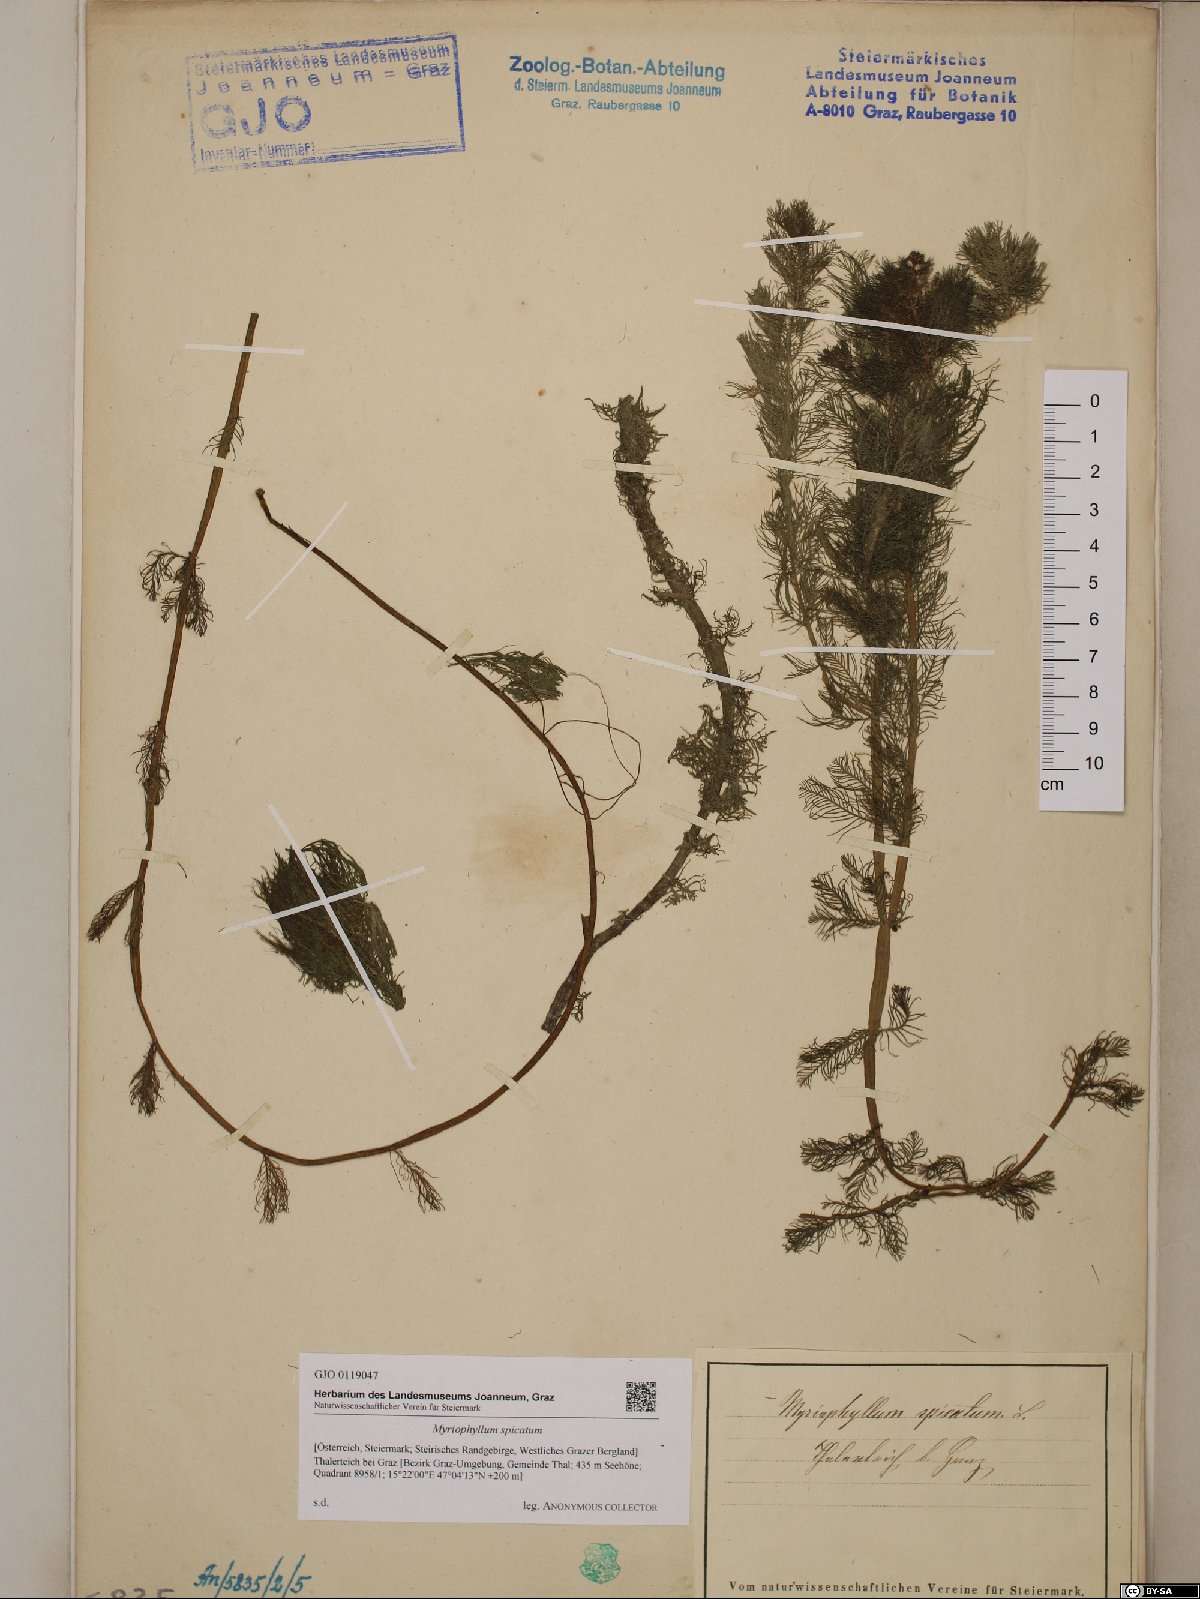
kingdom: Plantae
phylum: Tracheophyta
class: Magnoliopsida
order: Saxifragales
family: Haloragaceae
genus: Myriophyllum
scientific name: Myriophyllum spicatum
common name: Spiked water-milfoil
